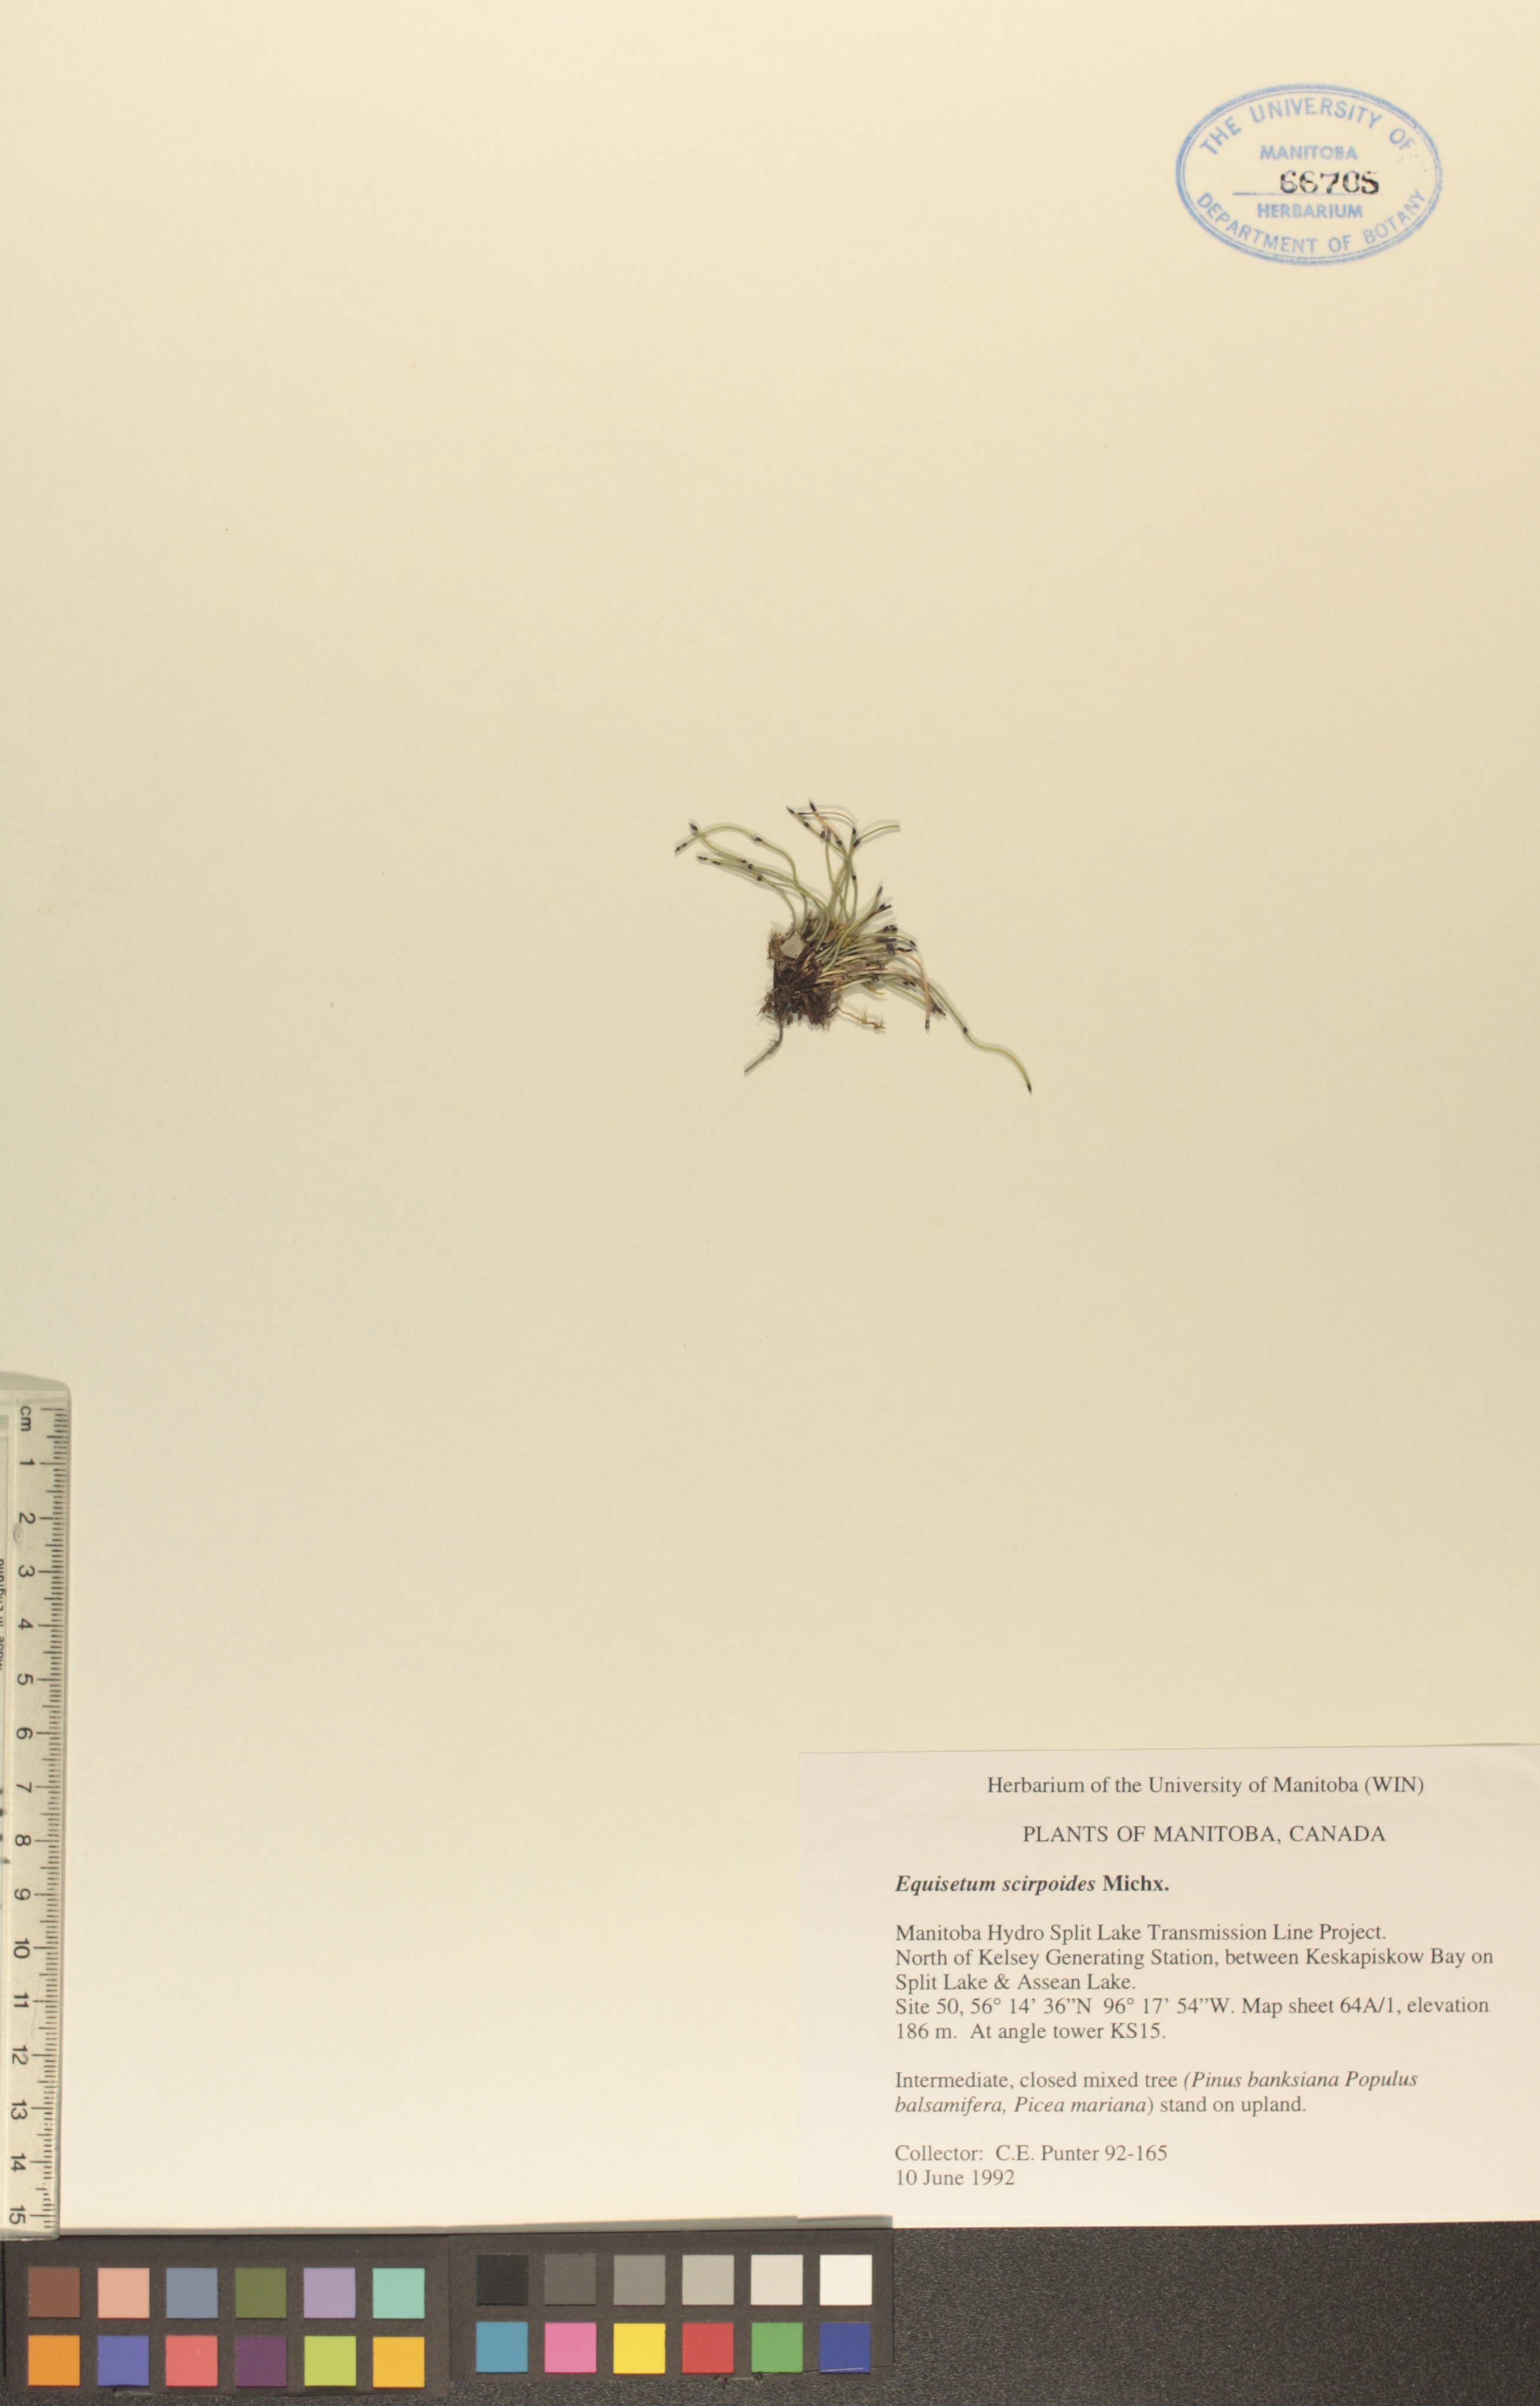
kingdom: Plantae
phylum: Tracheophyta
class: Polypodiopsida
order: Equisetales
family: Equisetaceae
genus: Equisetum
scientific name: Equisetum scirpoides
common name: Delicate horsetail
